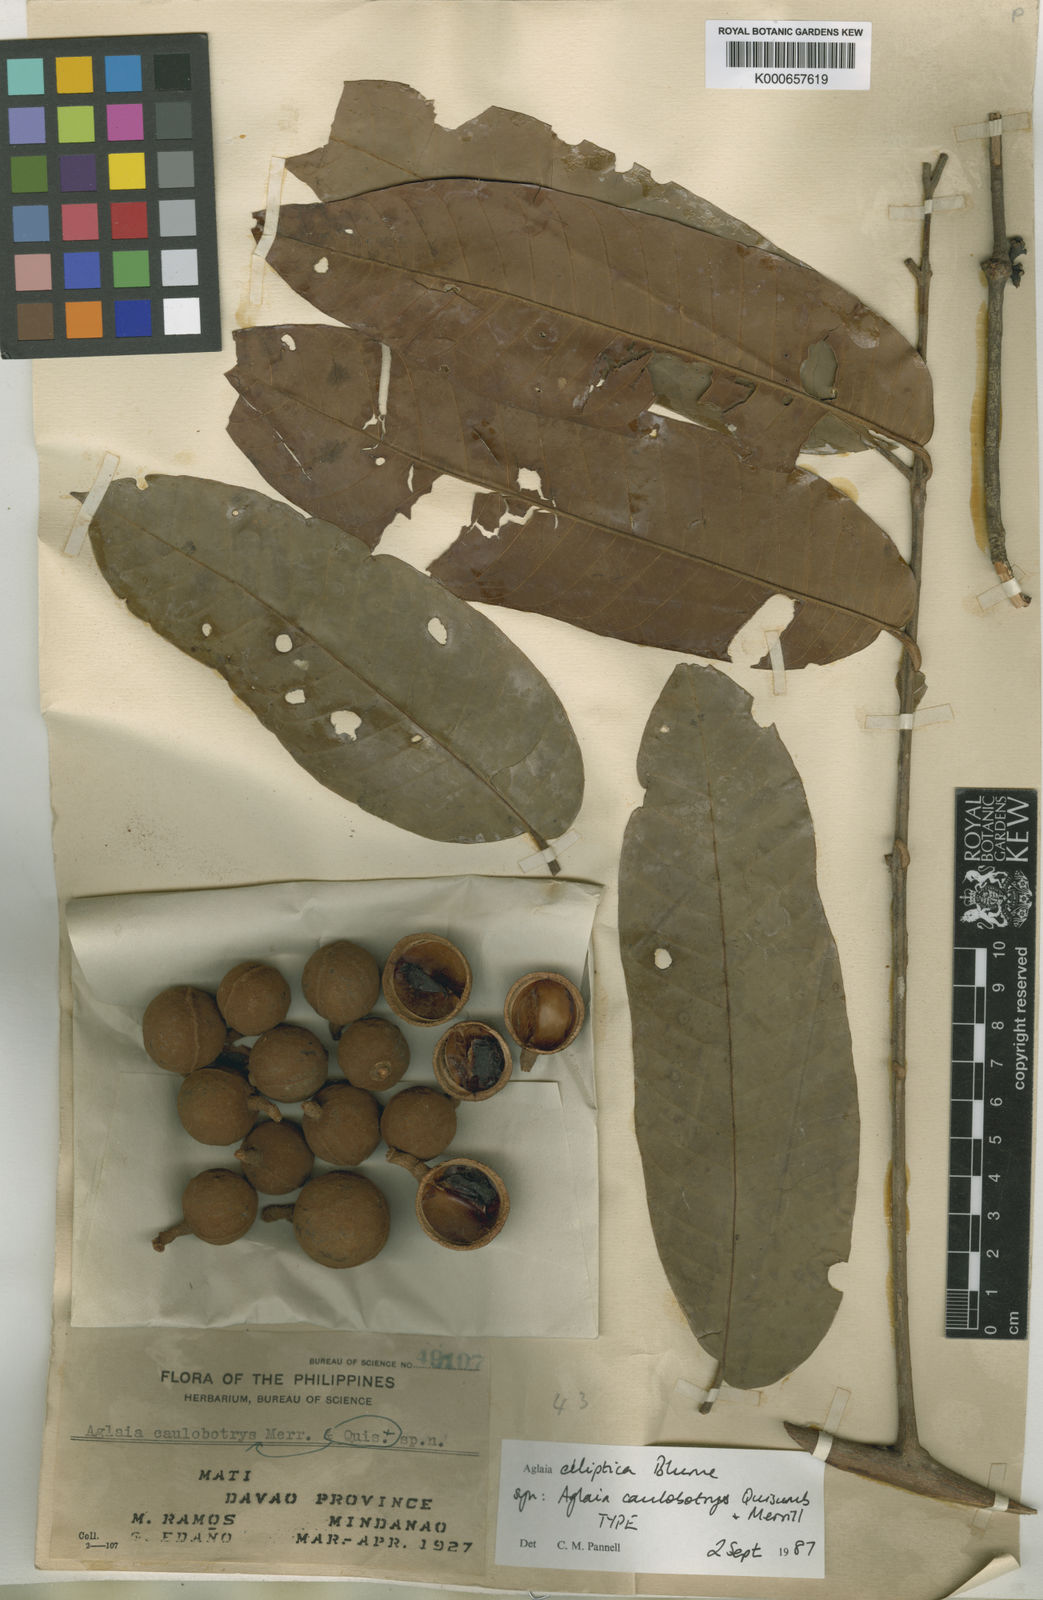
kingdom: Plantae
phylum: Tracheophyta
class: Magnoliopsida
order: Sapindales
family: Meliaceae
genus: Aglaia
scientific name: Aglaia elliptica
